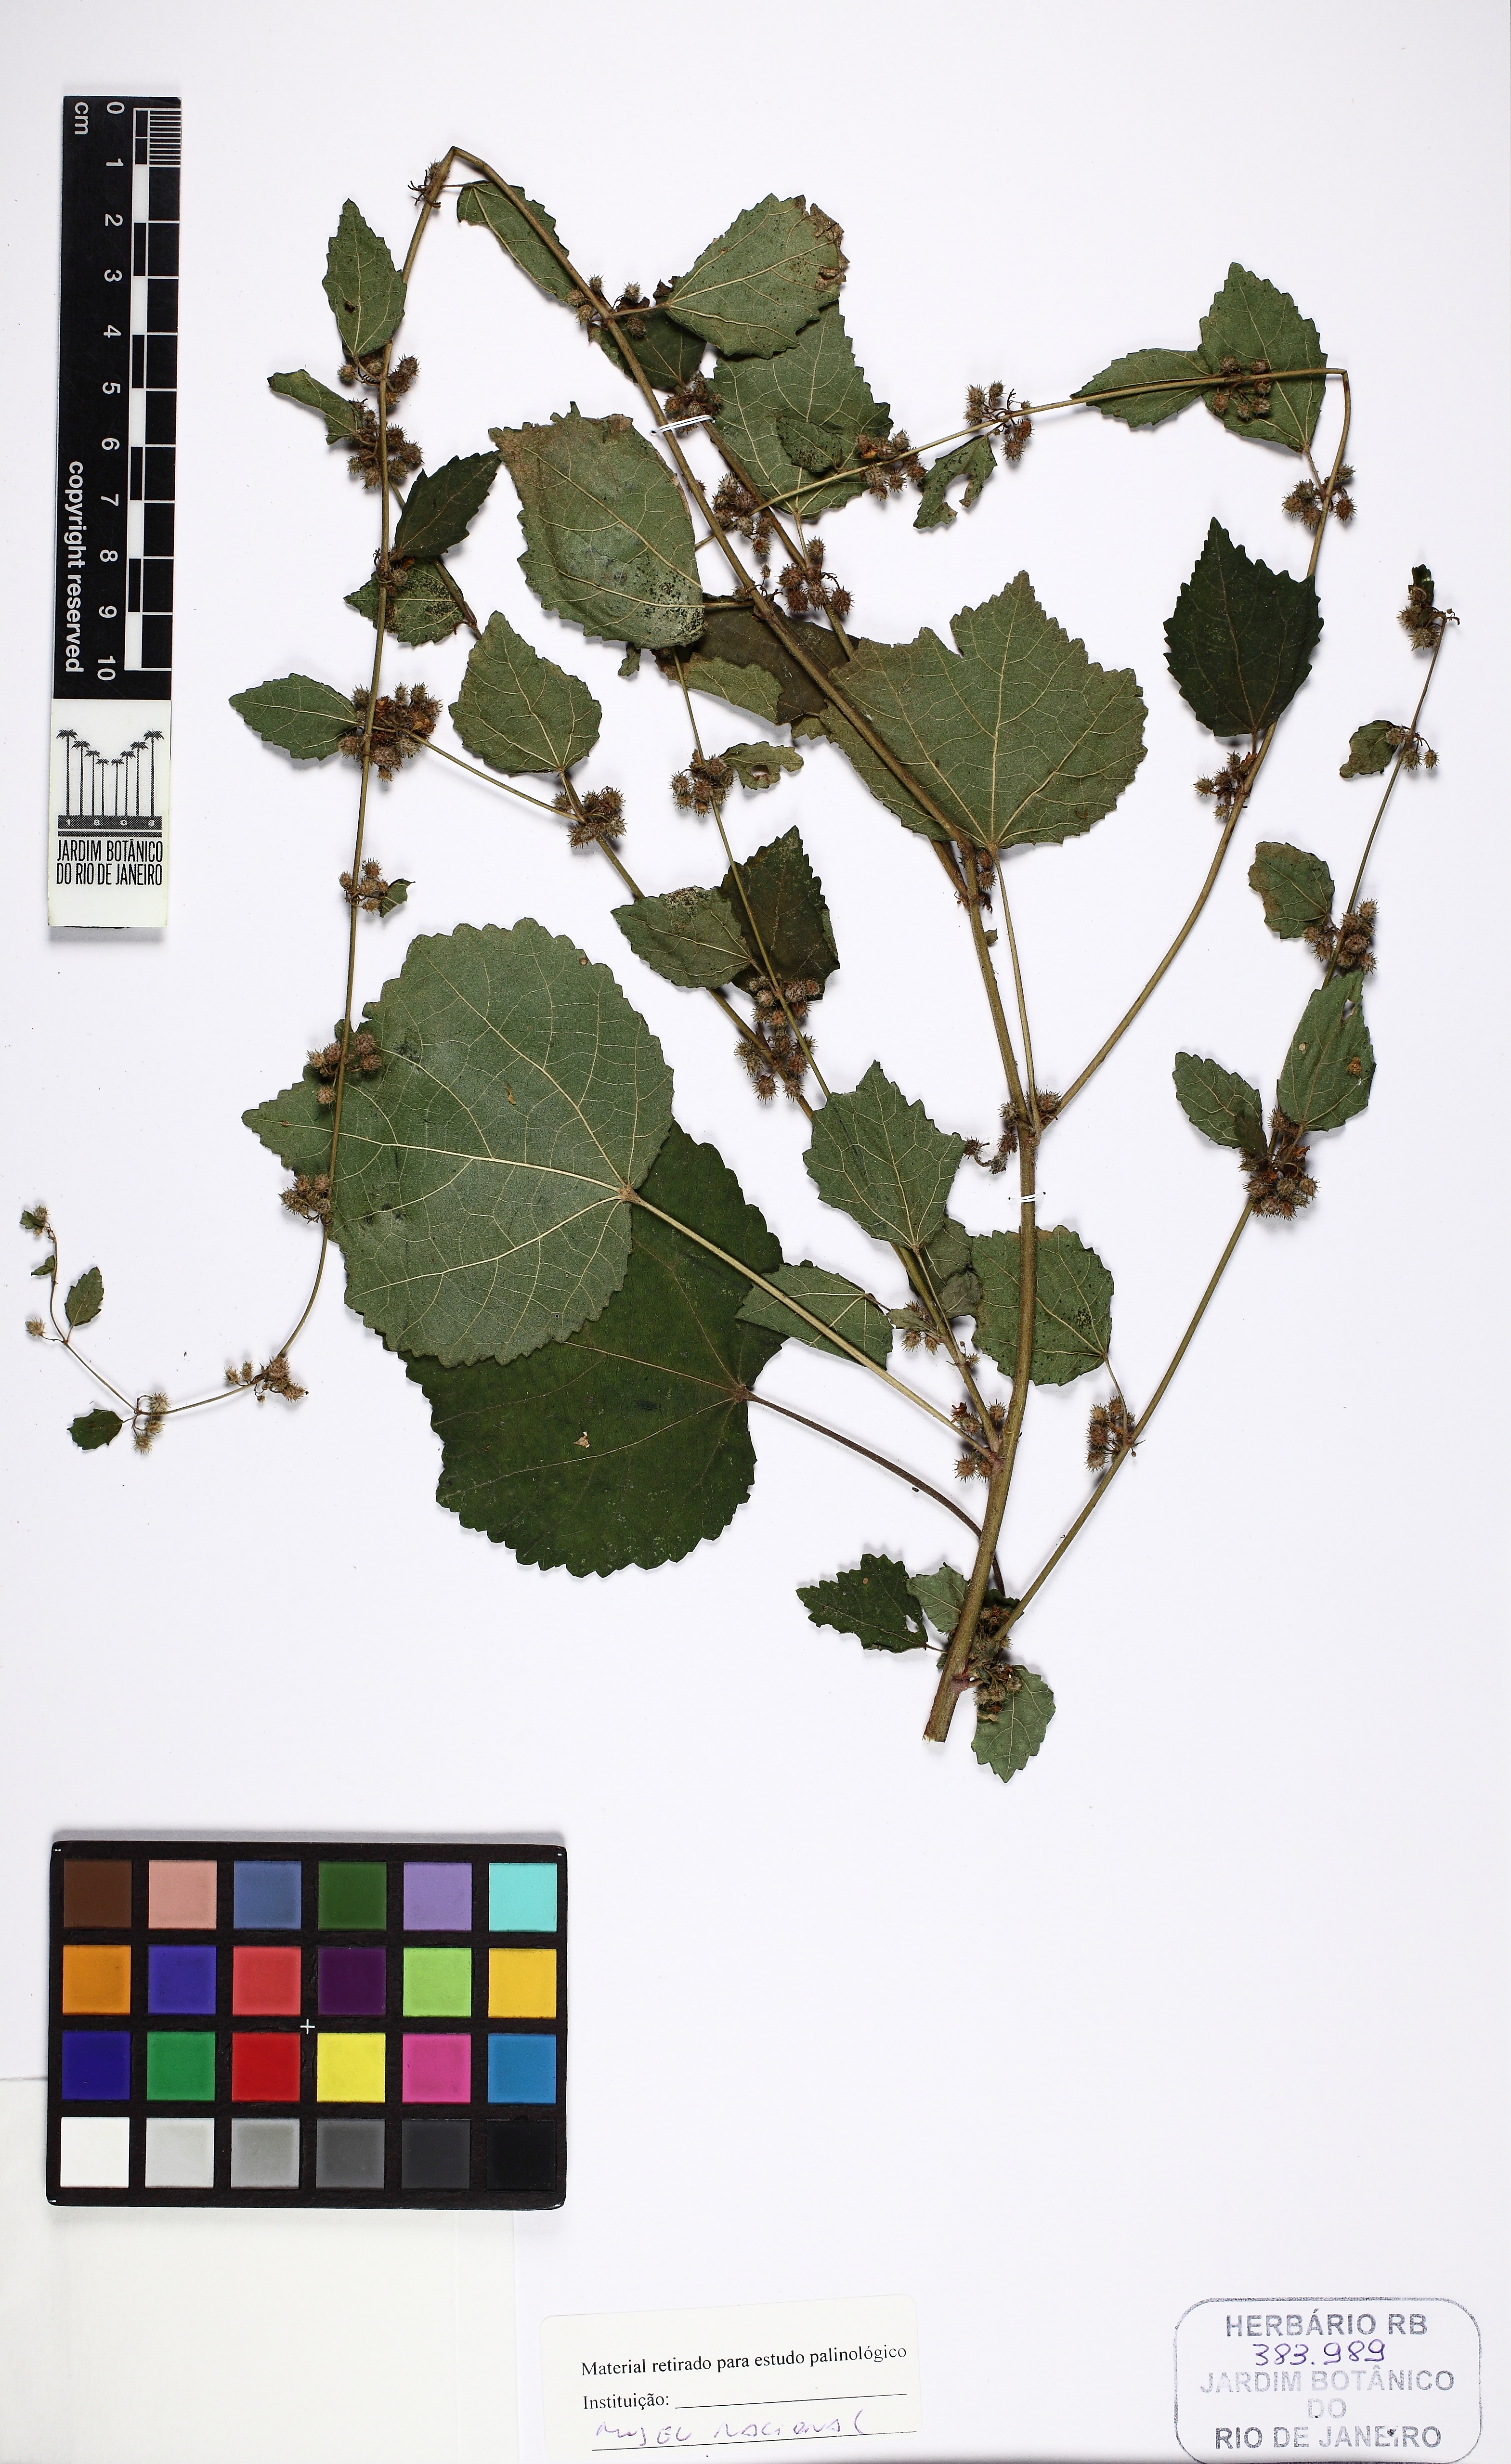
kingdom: Plantae
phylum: Tracheophyta
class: Magnoliopsida
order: Malvales
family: Malvaceae
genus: Triumfetta
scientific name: Triumfetta rhomboidea
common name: Diamond burbark
